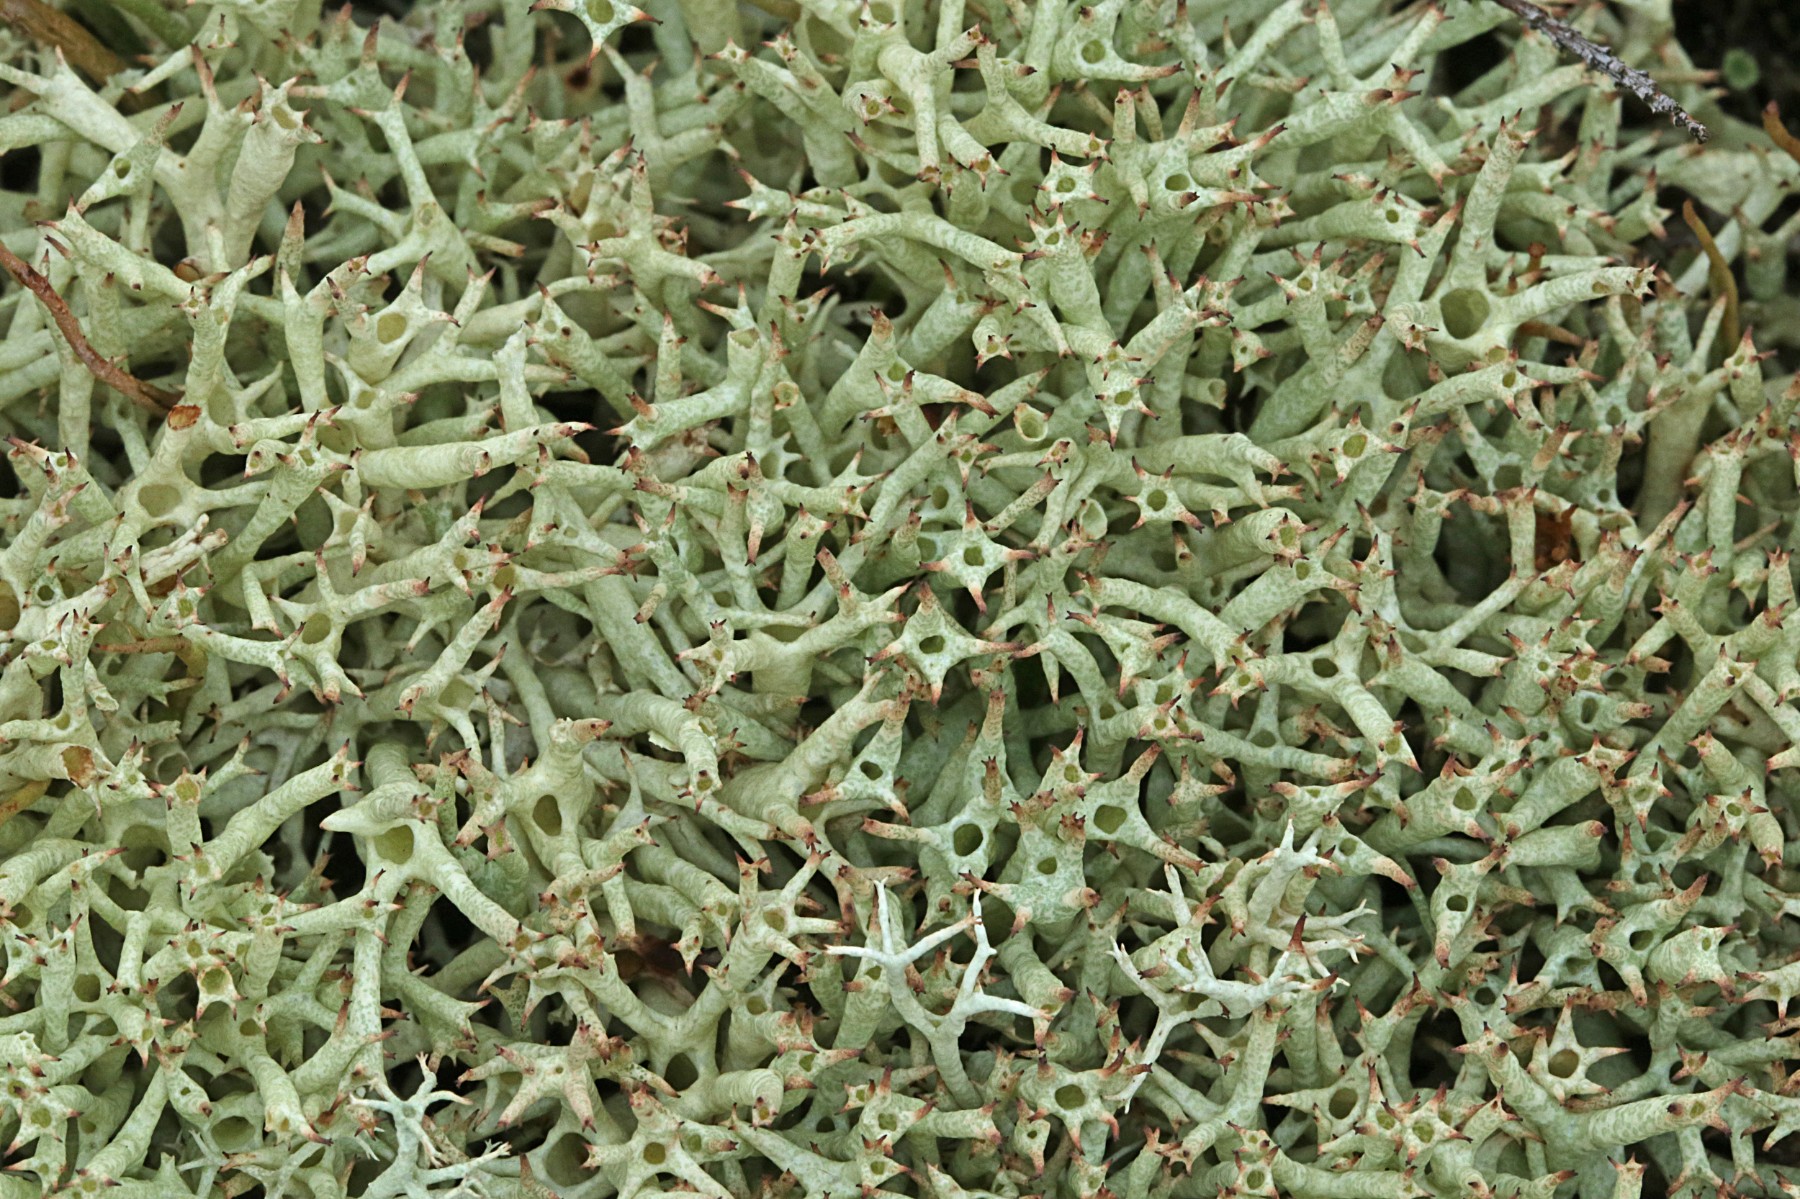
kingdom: Fungi
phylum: Ascomycota
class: Lecanoromycetes
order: Lecanorales
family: Cladoniaceae
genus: Cladonia
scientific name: Cladonia uncialis
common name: pigget bægerlav
